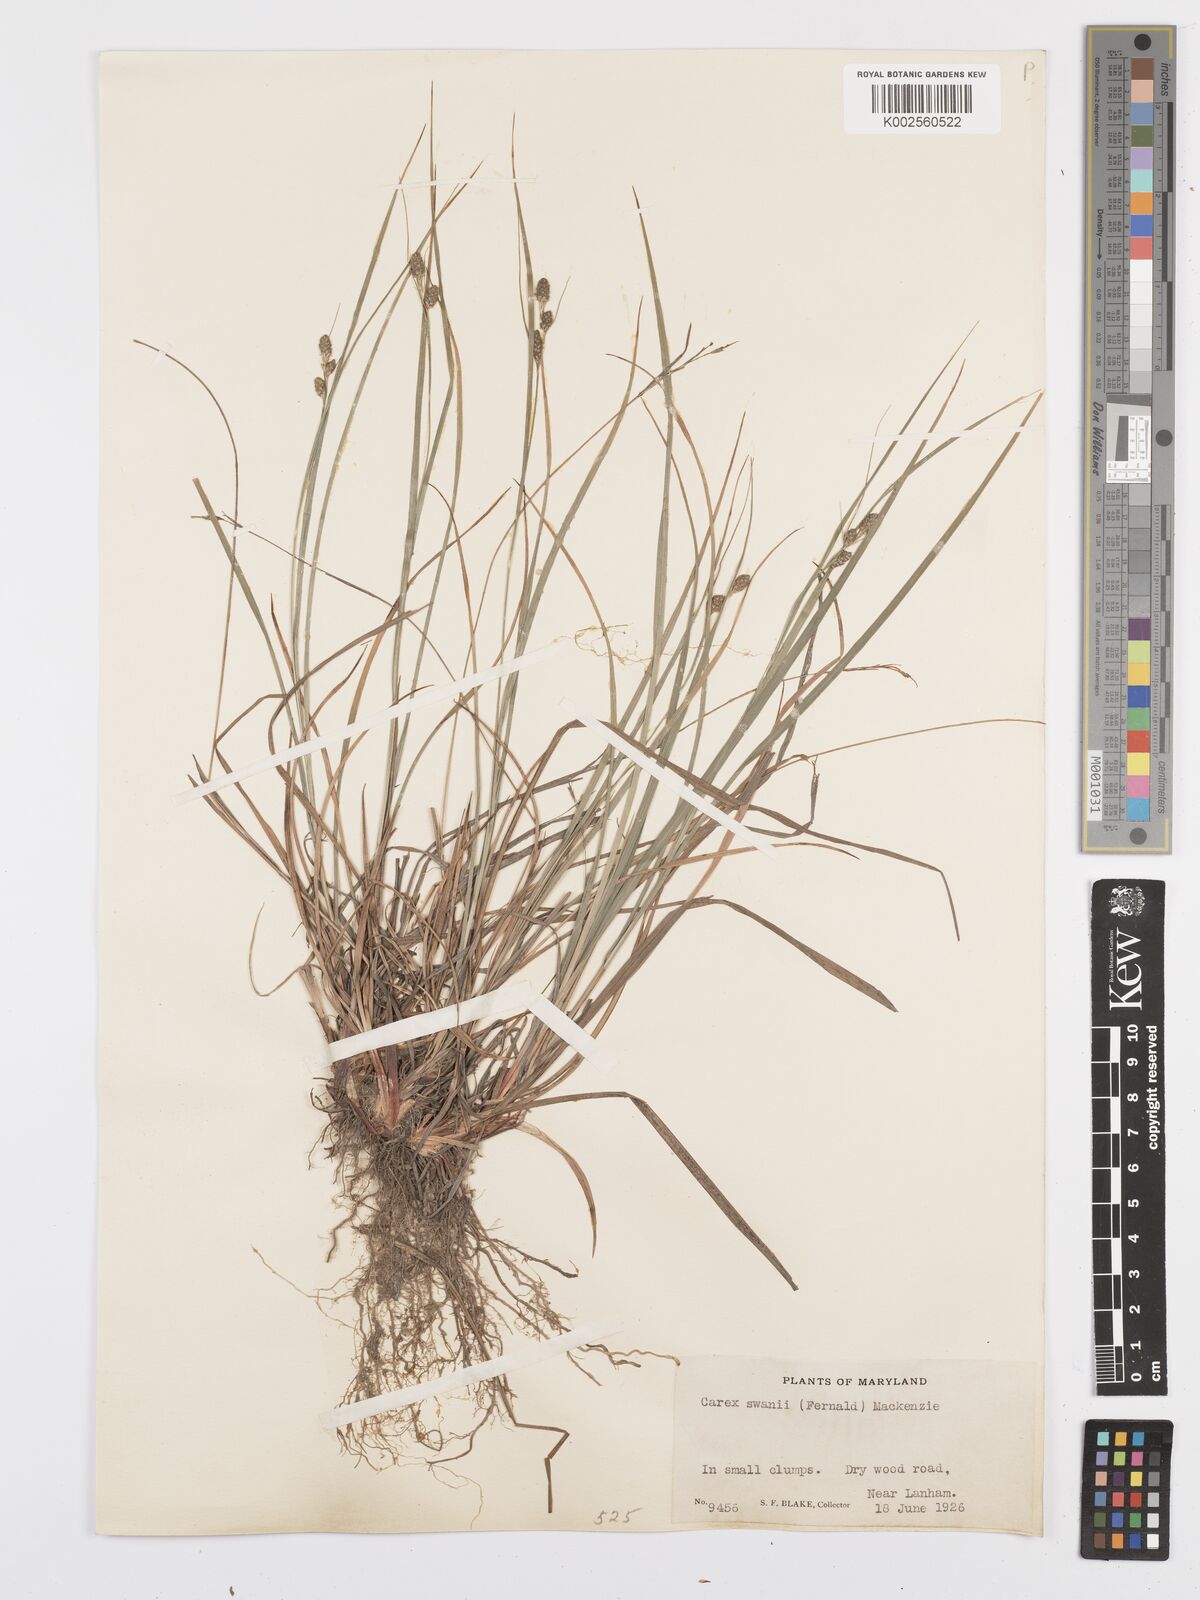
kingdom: Plantae
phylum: Tracheophyta
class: Liliopsida
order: Poales
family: Cyperaceae
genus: Carex
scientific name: Carex swanii
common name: Downy green sedge
